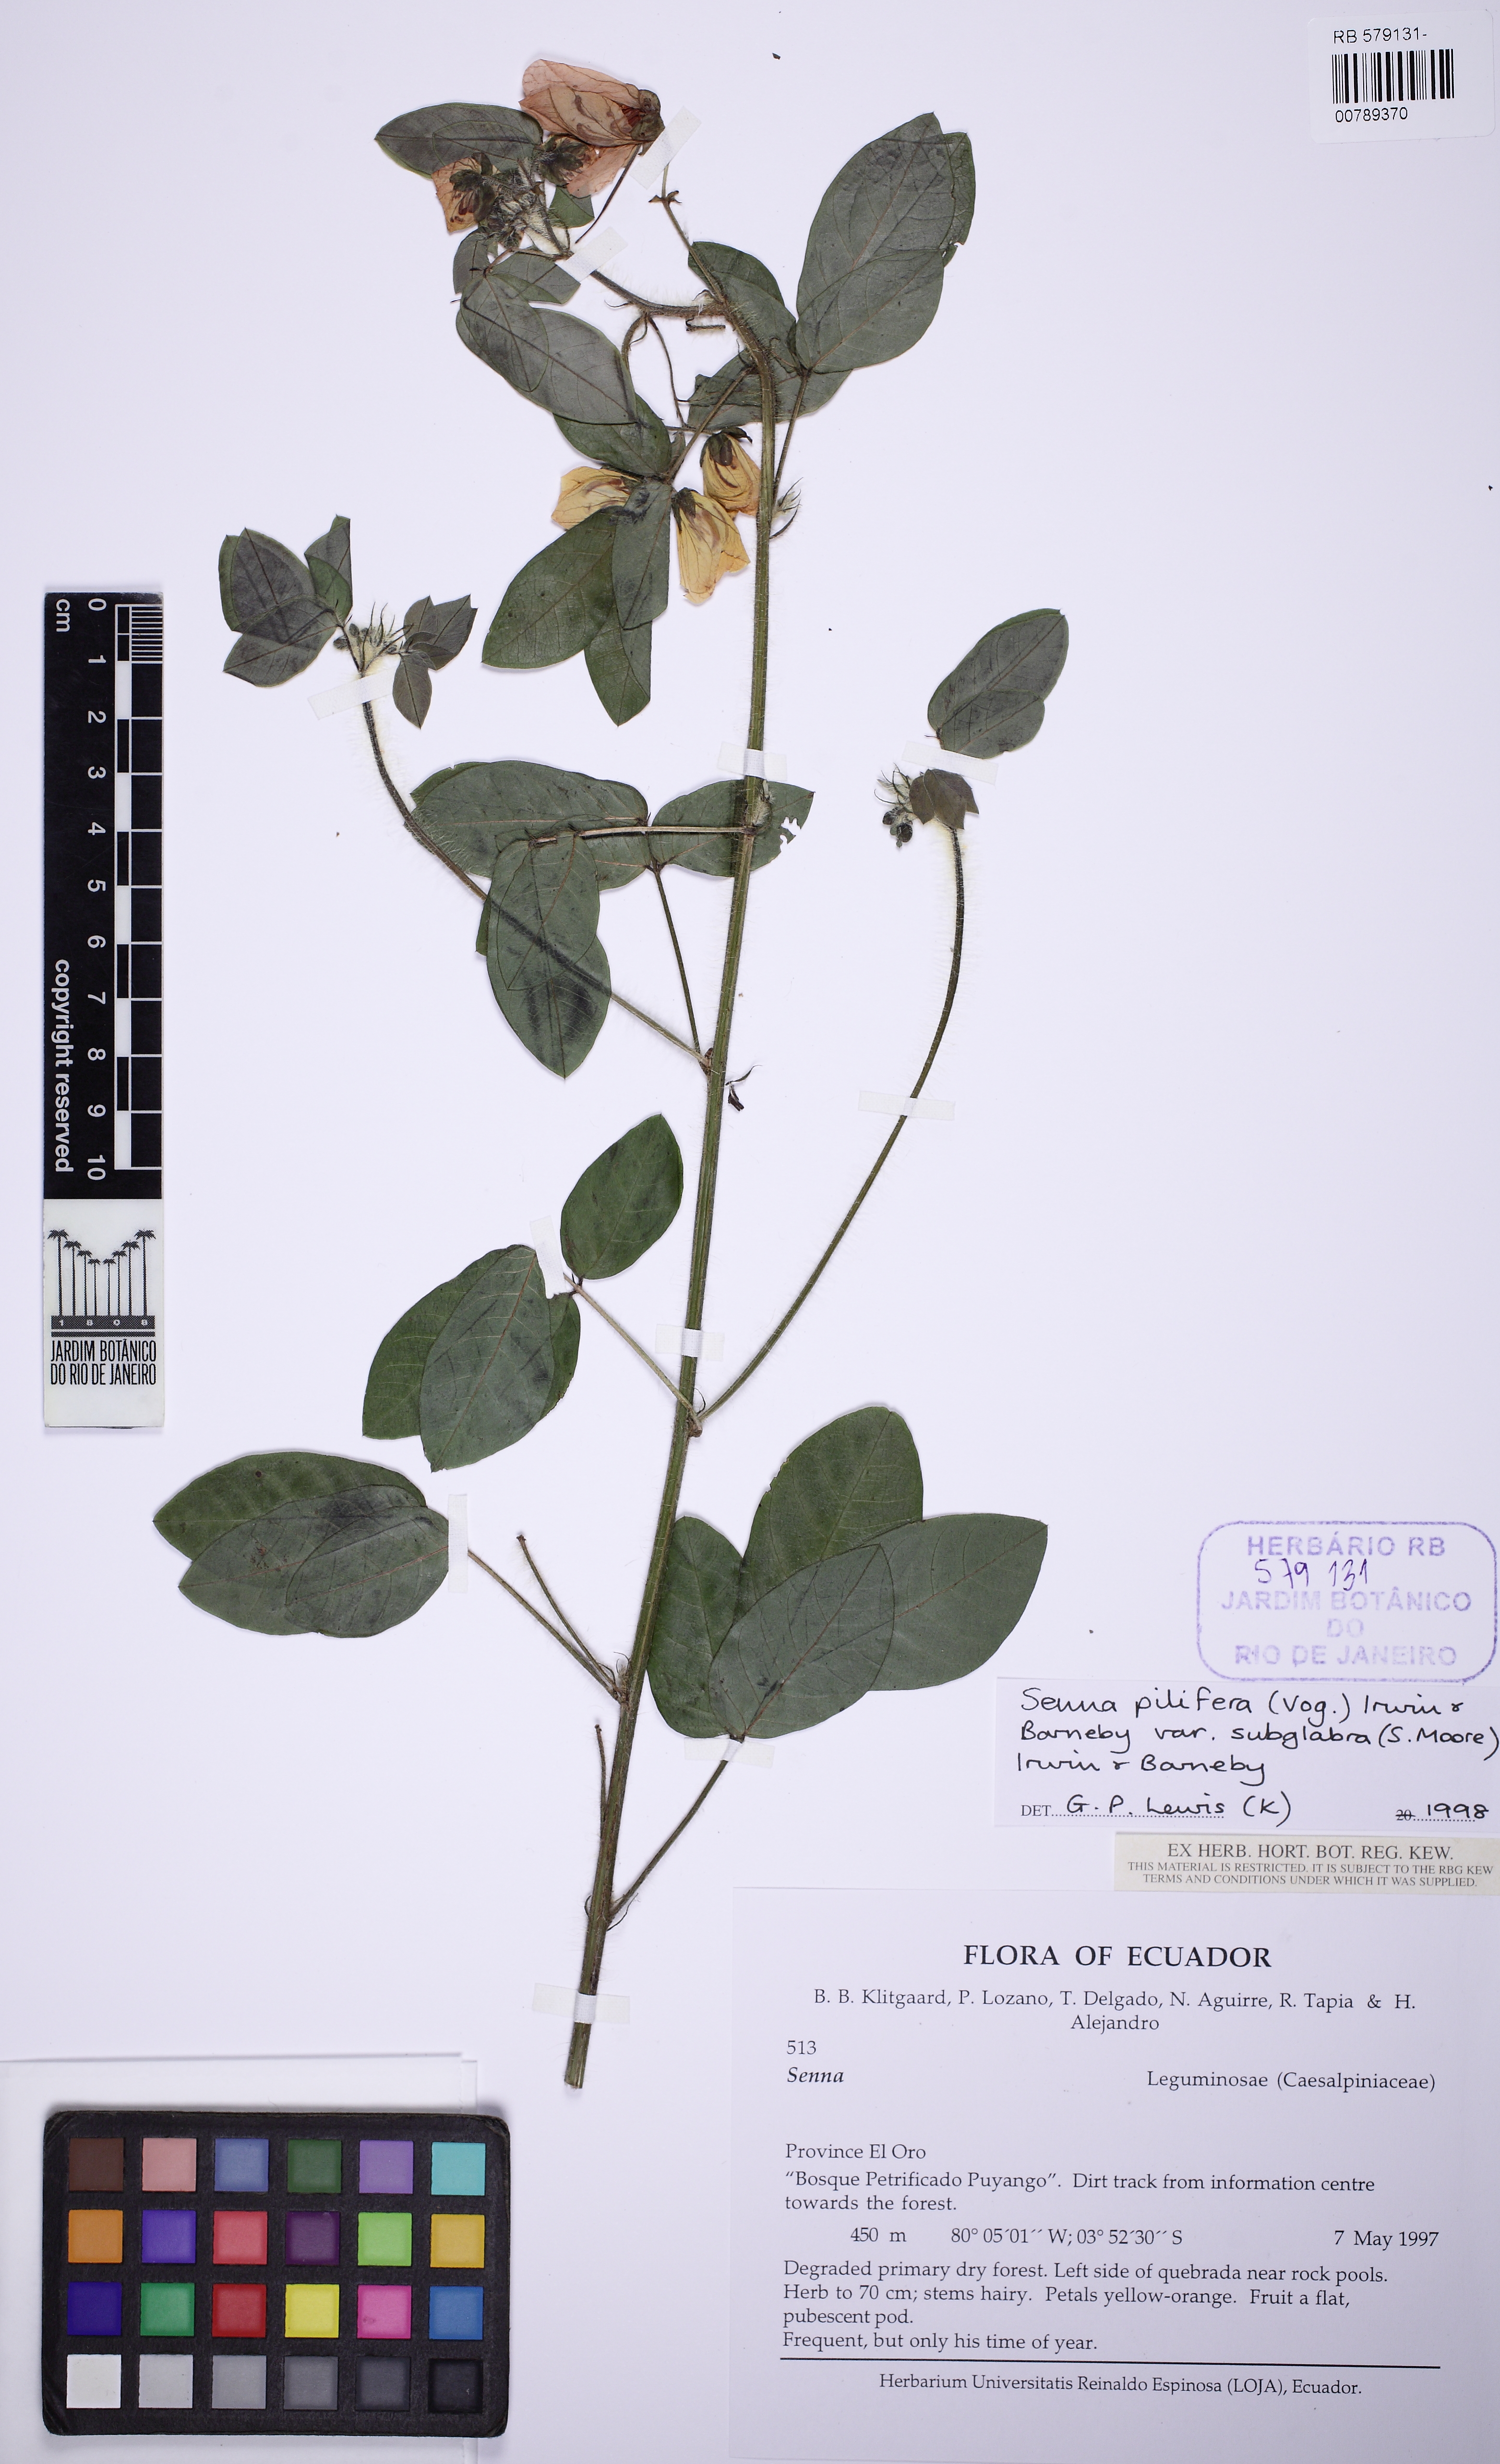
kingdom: Plantae
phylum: Tracheophyta
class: Magnoliopsida
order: Fabales
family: Fabaceae
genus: Senna
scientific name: Senna pilifera
